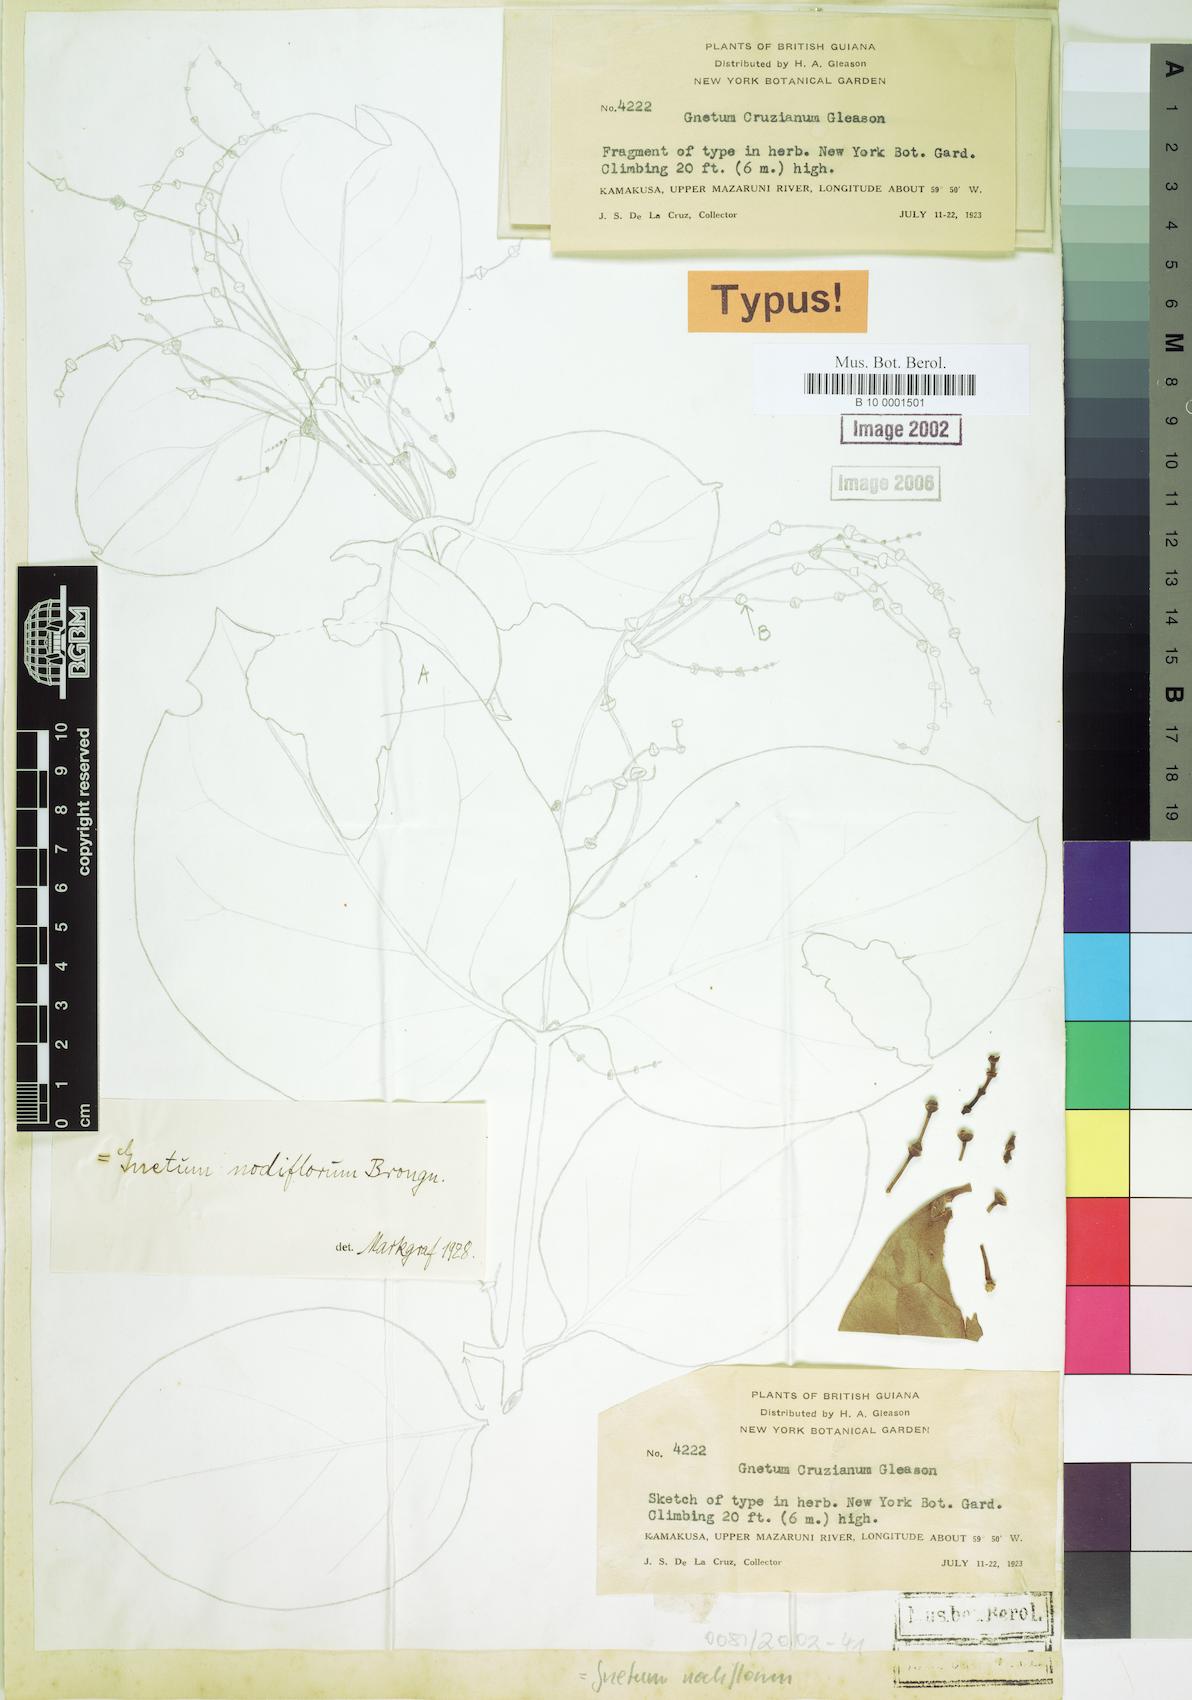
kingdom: Plantae
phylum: Tracheophyta
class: Gnetopsida
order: Gnetales
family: Gnetaceae
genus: Gnetum
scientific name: Gnetum nodiflorum
